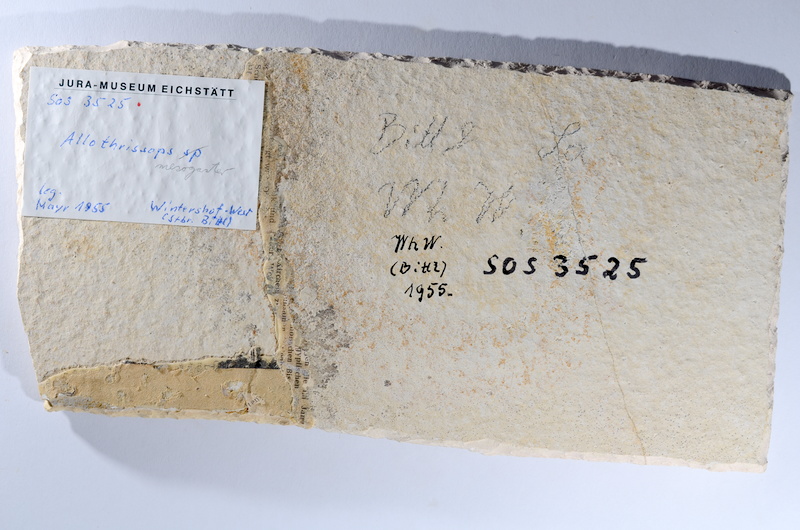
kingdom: Animalia
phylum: Chordata
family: Allothrissopidae
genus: Allothrissops
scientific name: Allothrissops mesogaster
